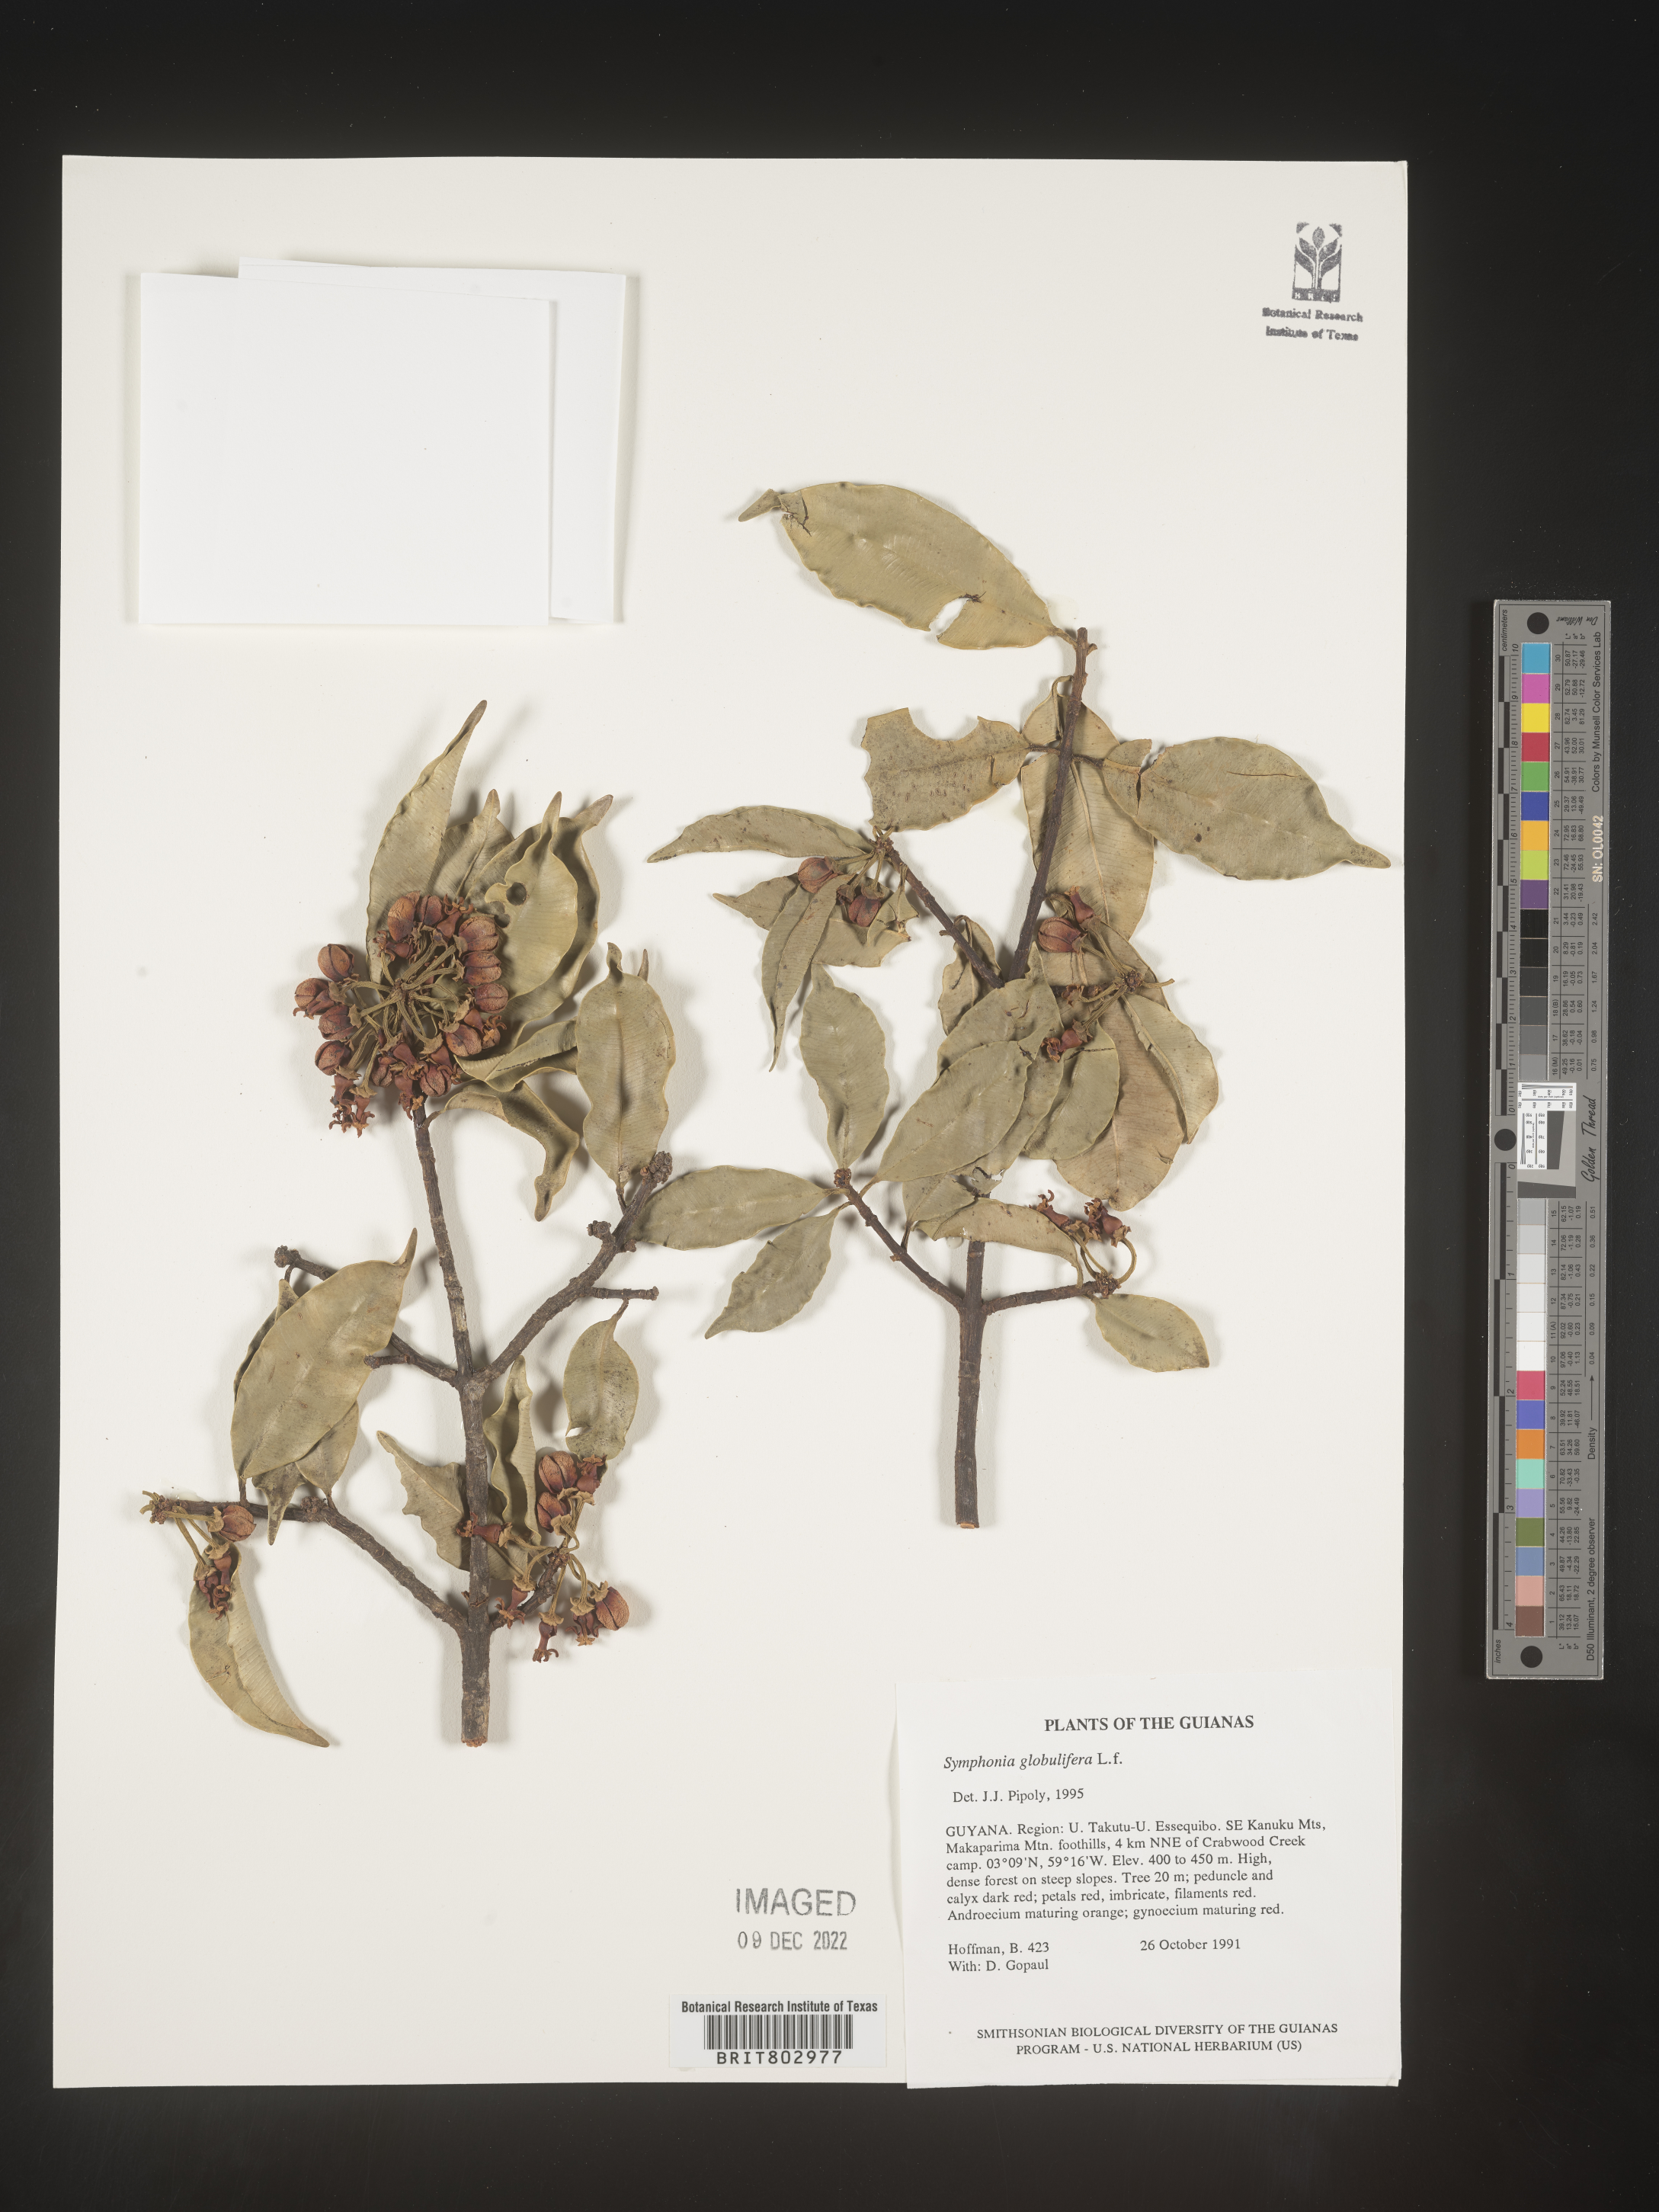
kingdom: Plantae
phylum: Tracheophyta
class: Magnoliopsida
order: Malpighiales
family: Clusiaceae
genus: Symphonia
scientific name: Symphonia globulifera
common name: Boarwood
